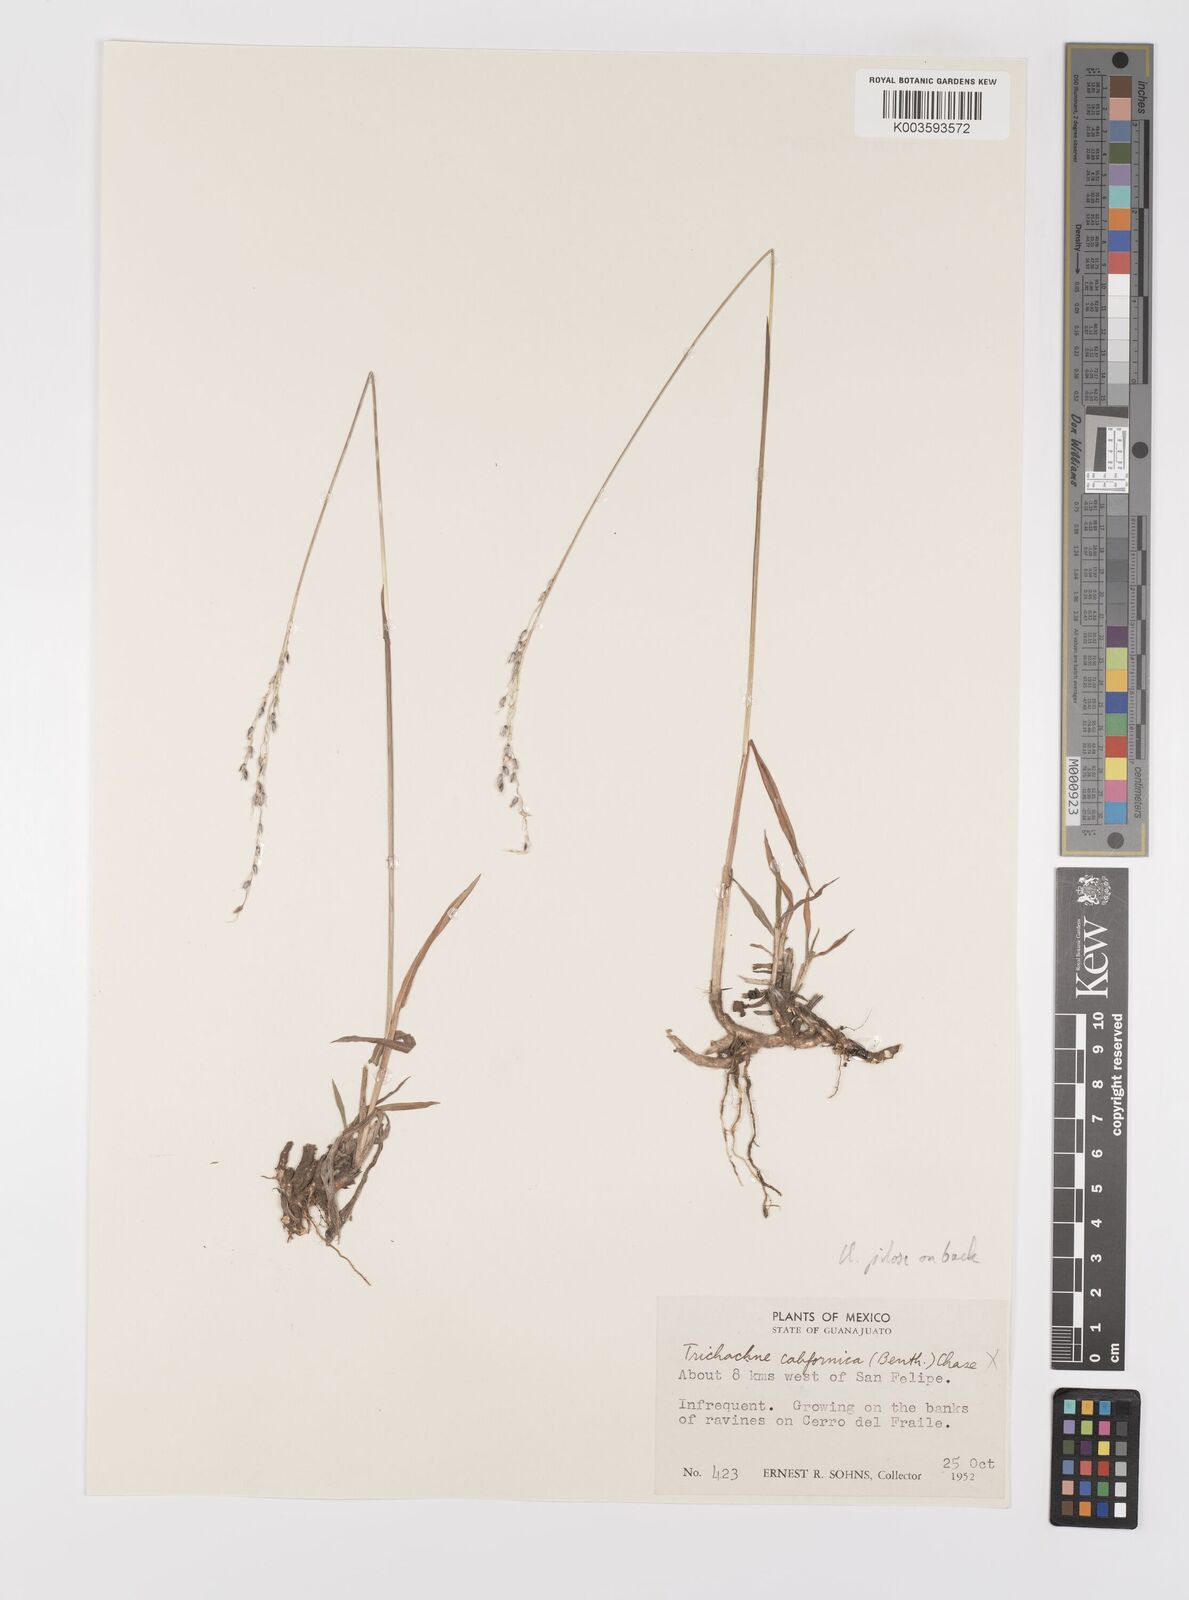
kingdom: Plantae
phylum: Tracheophyta
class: Liliopsida
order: Poales
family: Poaceae
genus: Digitaria
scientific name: Digitaria spec
